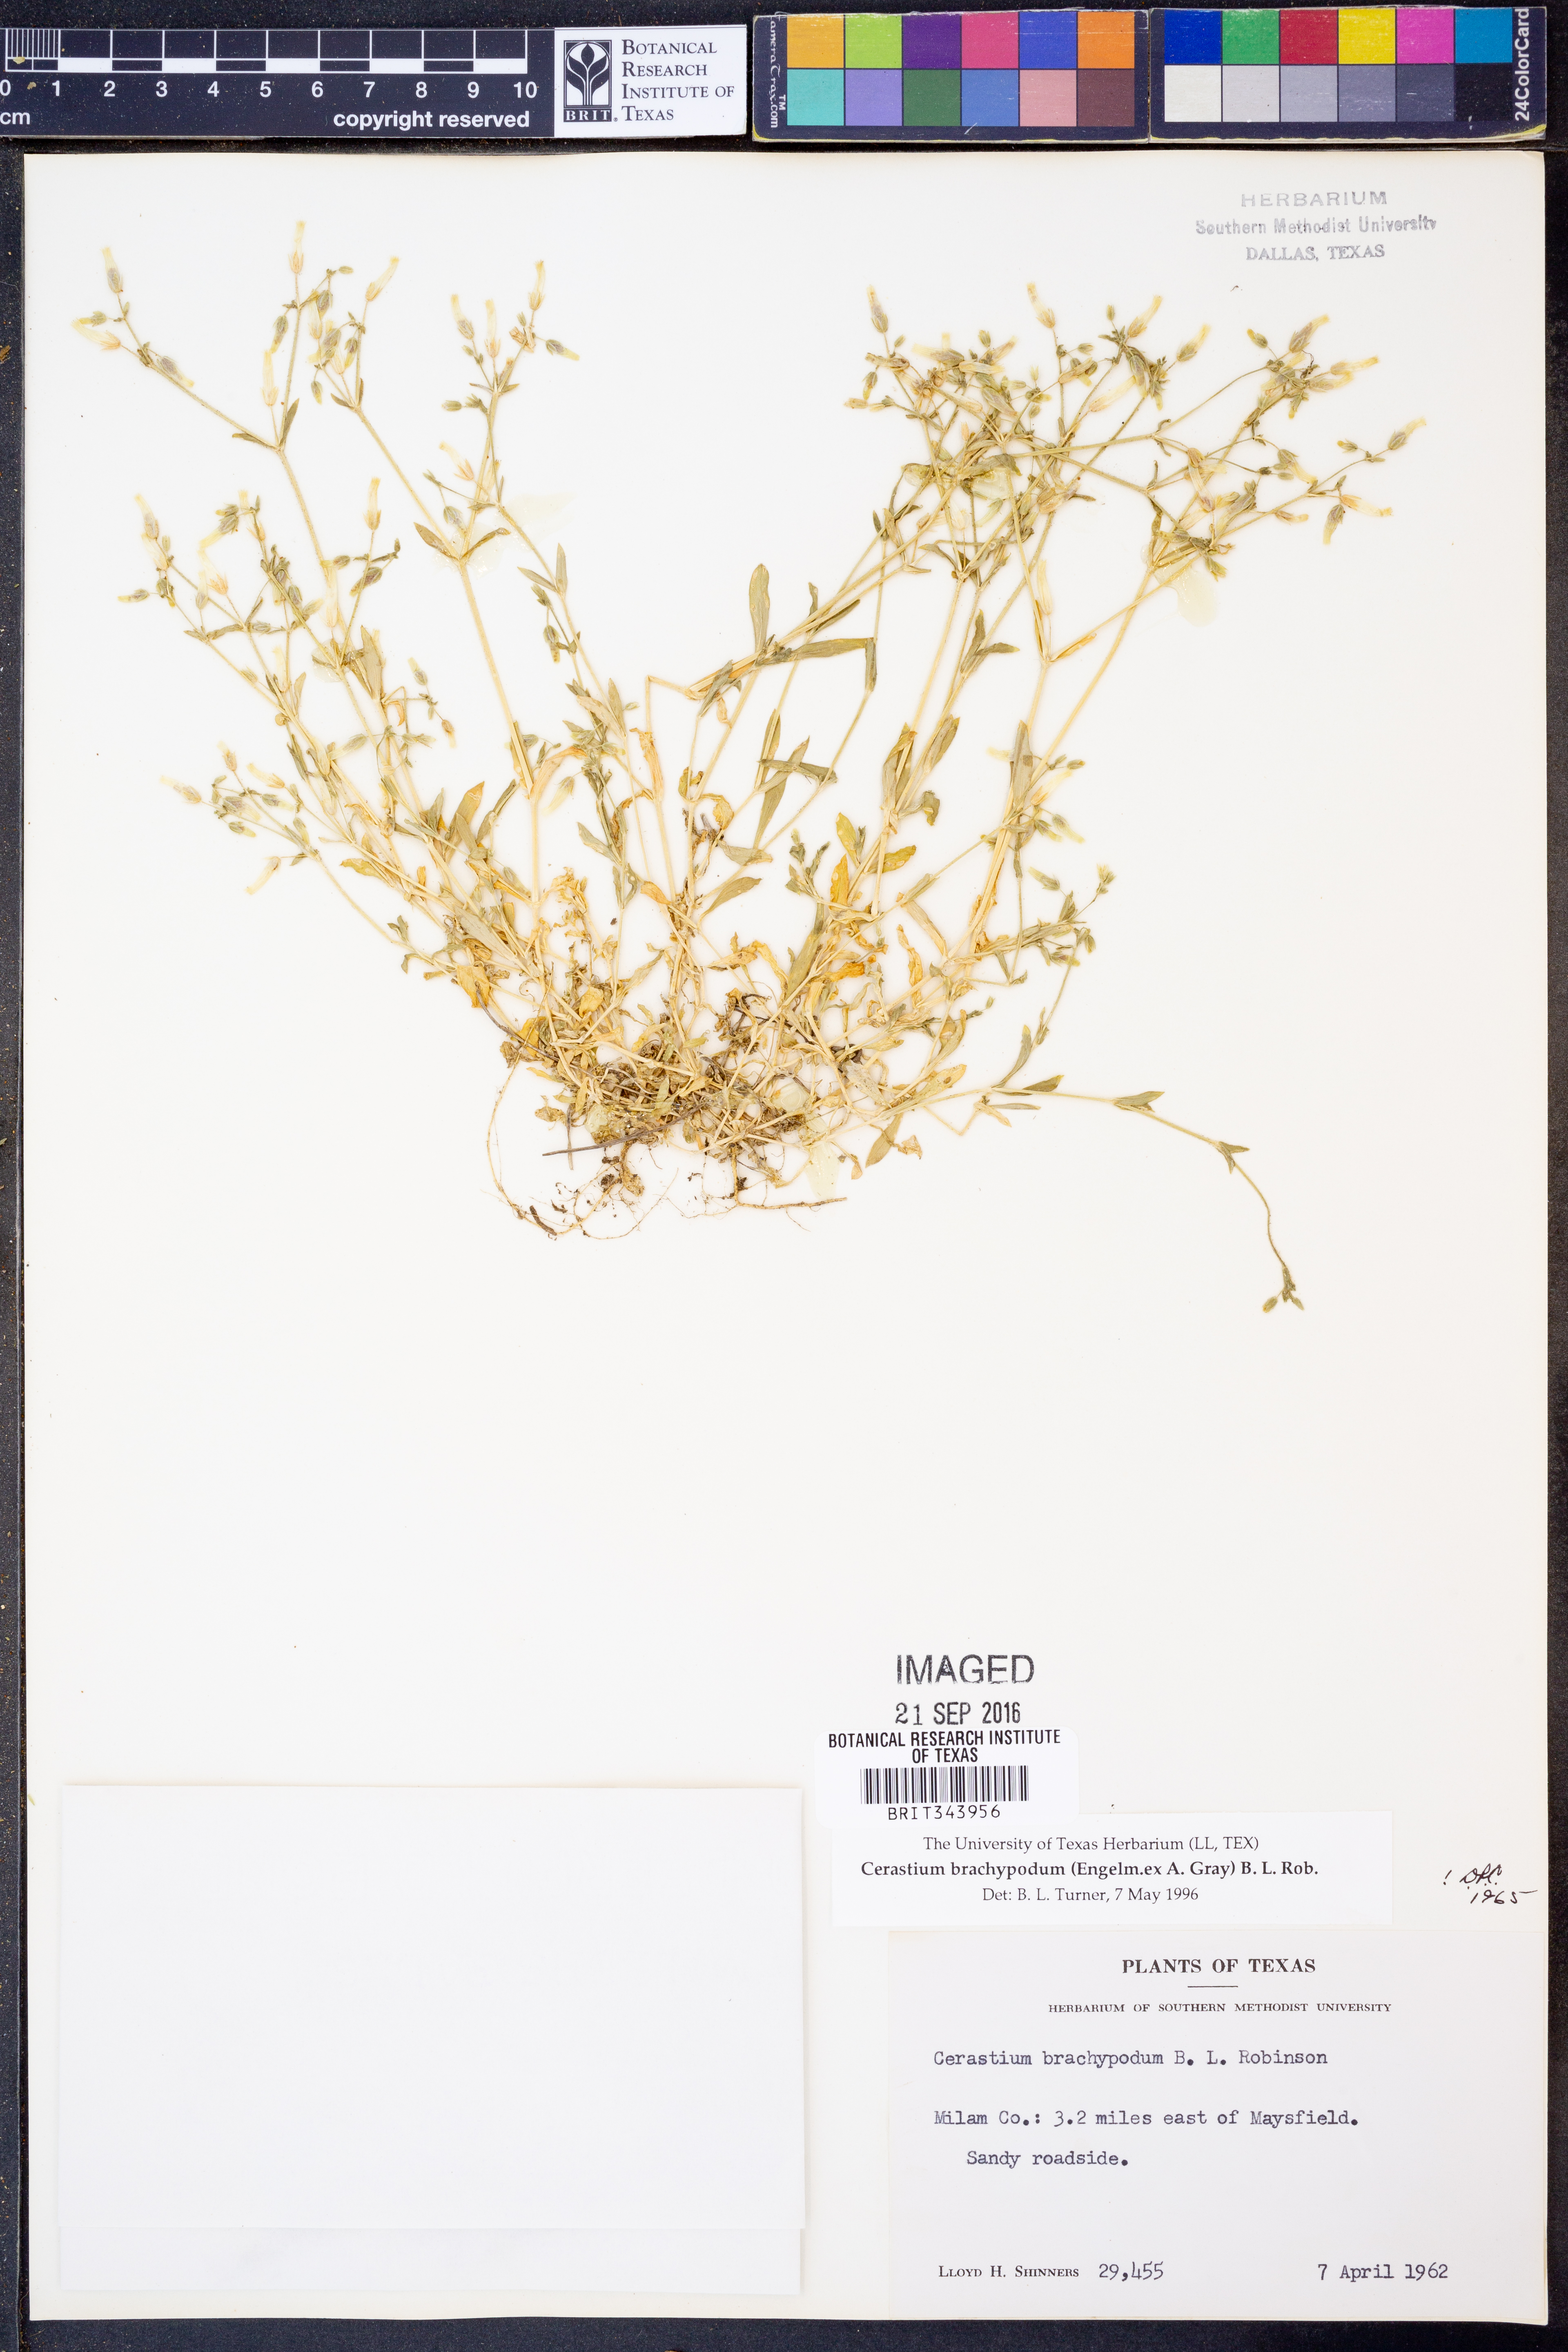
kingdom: Plantae
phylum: Tracheophyta
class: Magnoliopsida
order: Caryophyllales
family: Caryophyllaceae
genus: Cerastium
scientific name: Cerastium brachypodum
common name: Short-pedicelled nodding chickweed
